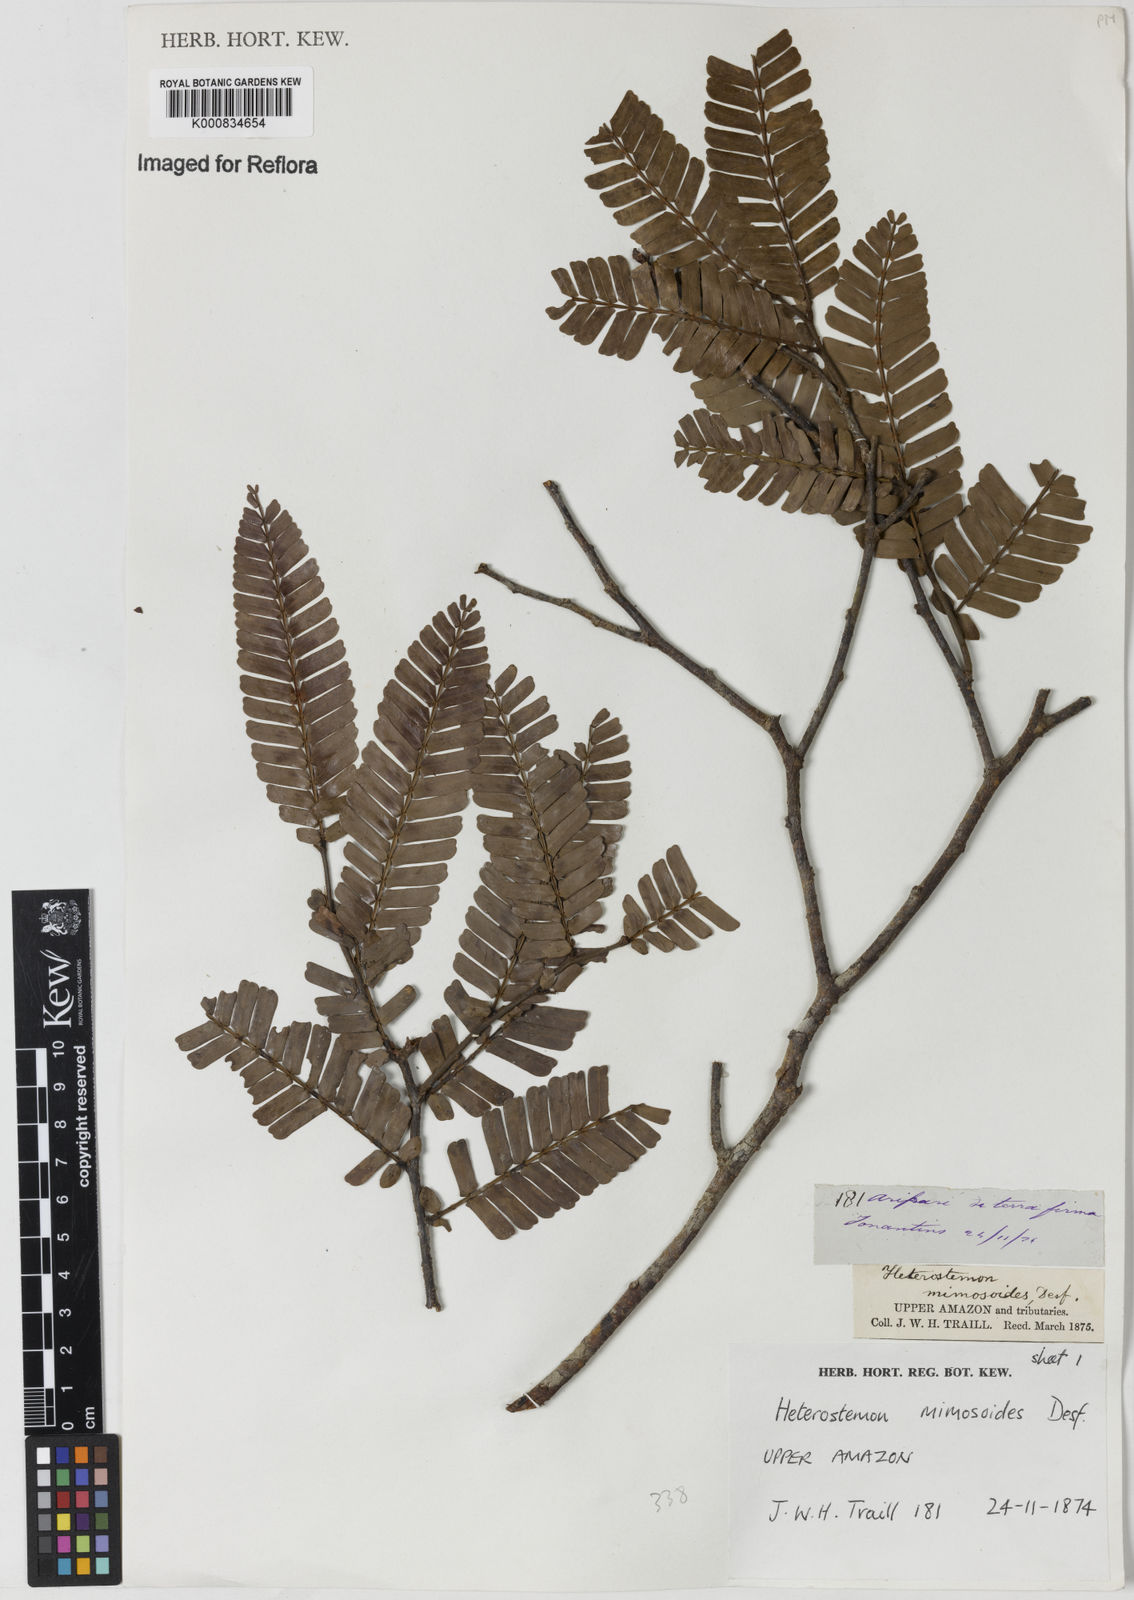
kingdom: Plantae
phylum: Tracheophyta
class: Magnoliopsida
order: Fabales
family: Fabaceae
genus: Heterostemon
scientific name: Heterostemon mimosoides
